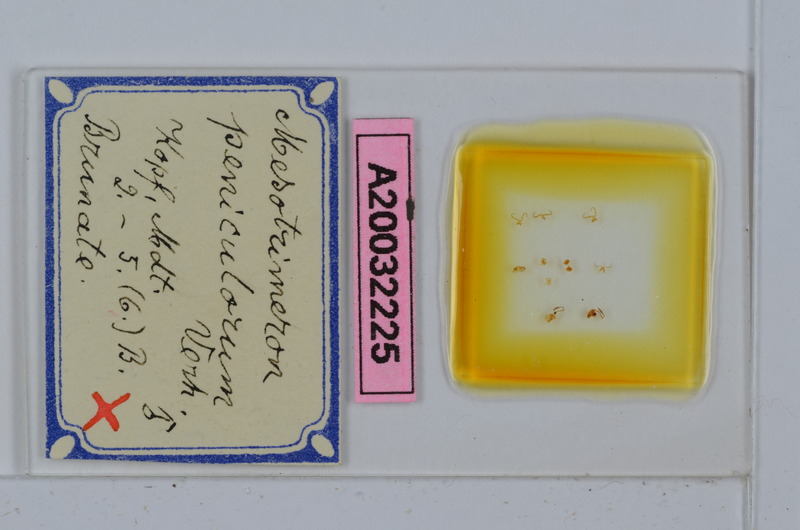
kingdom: Animalia
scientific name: Animalia
